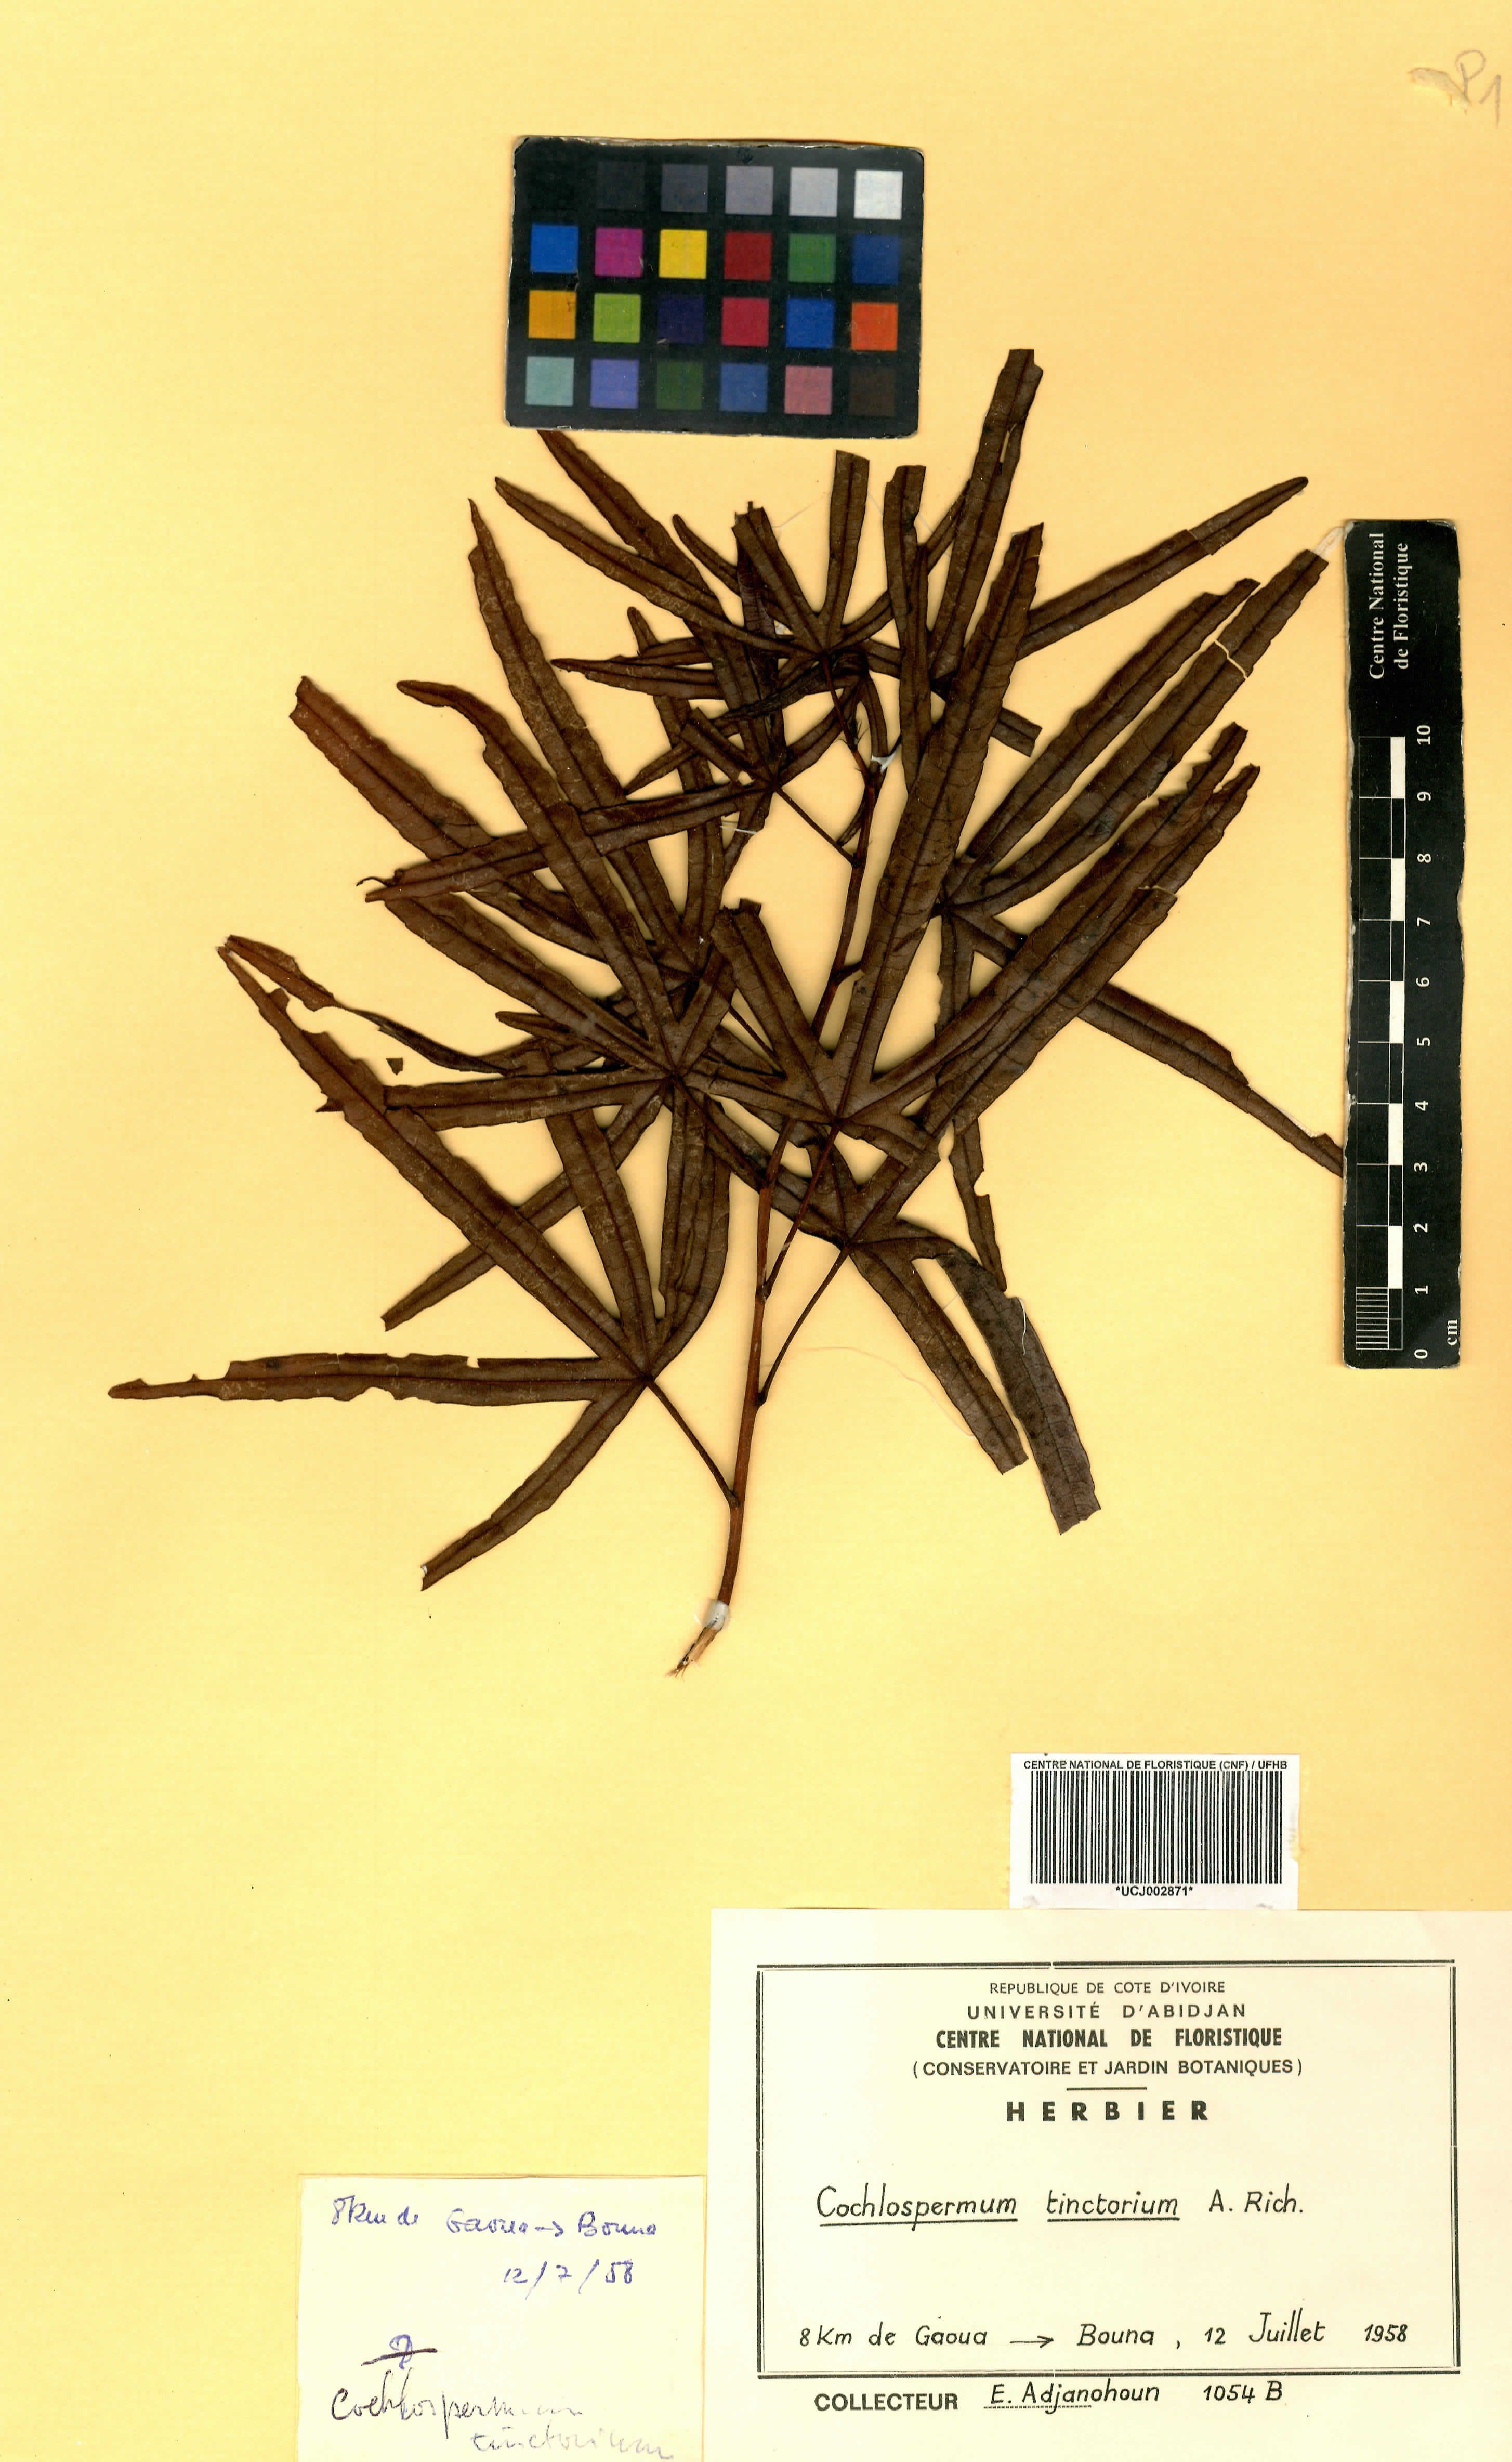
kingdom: Plantae
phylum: Tracheophyta
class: Magnoliopsida
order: Malvales
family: Cochlospermaceae
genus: Cochlospermum
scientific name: Cochlospermum tinctorium
